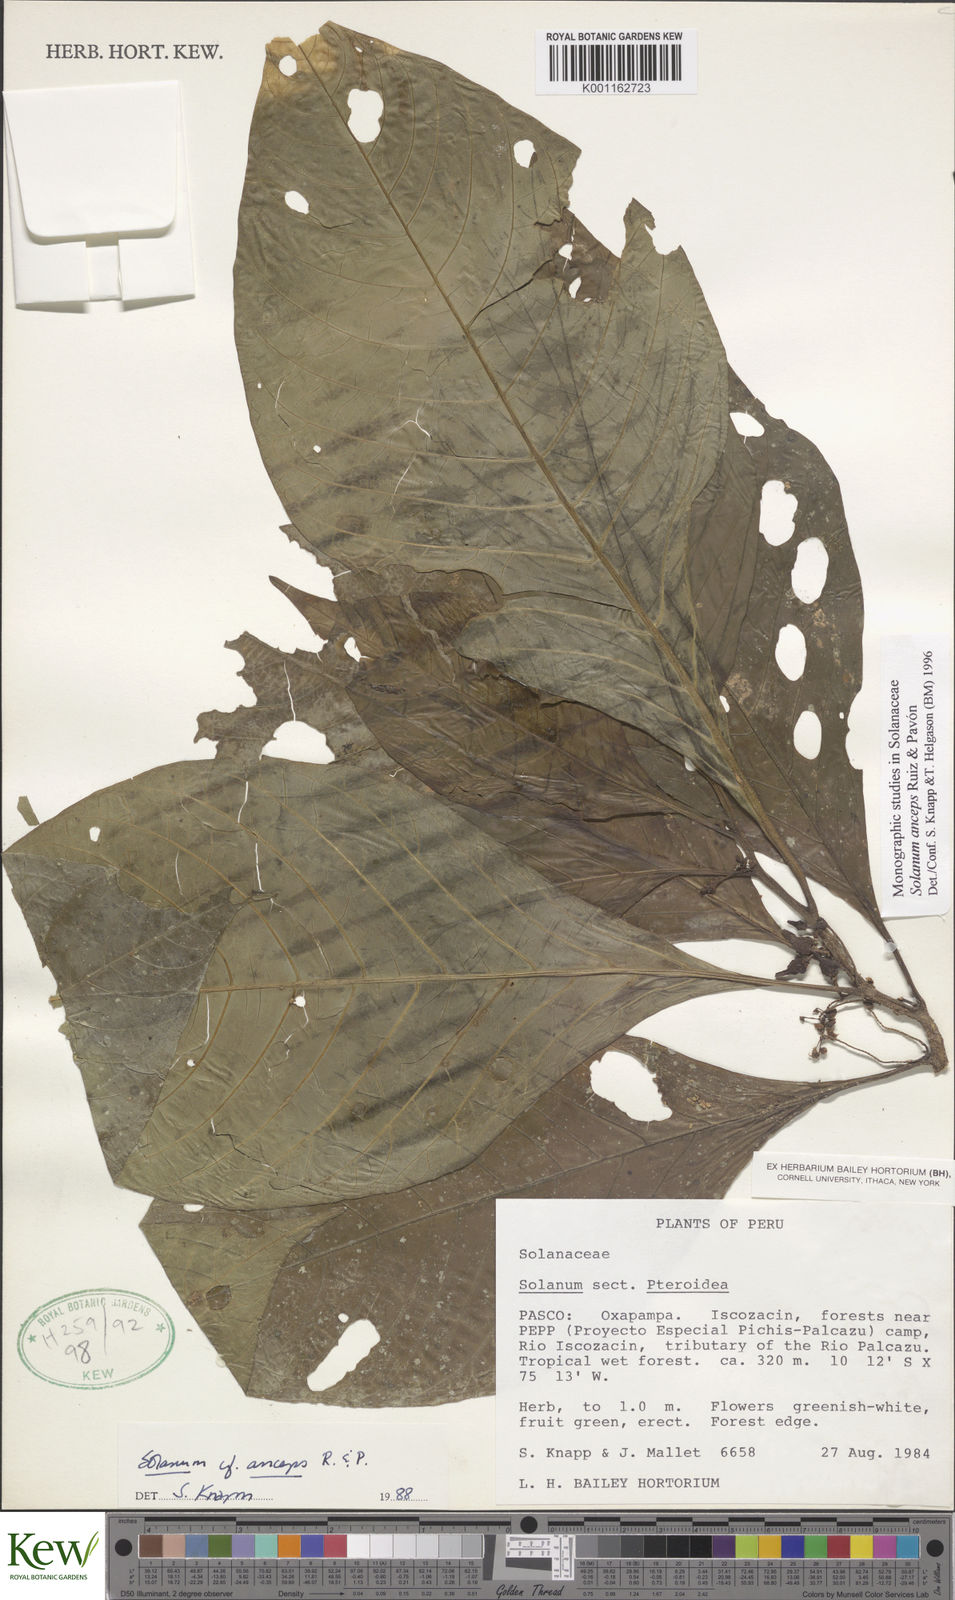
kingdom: Plantae
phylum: Tracheophyta
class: Magnoliopsida
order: Solanales
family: Solanaceae
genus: Solanum
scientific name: Solanum anceps
